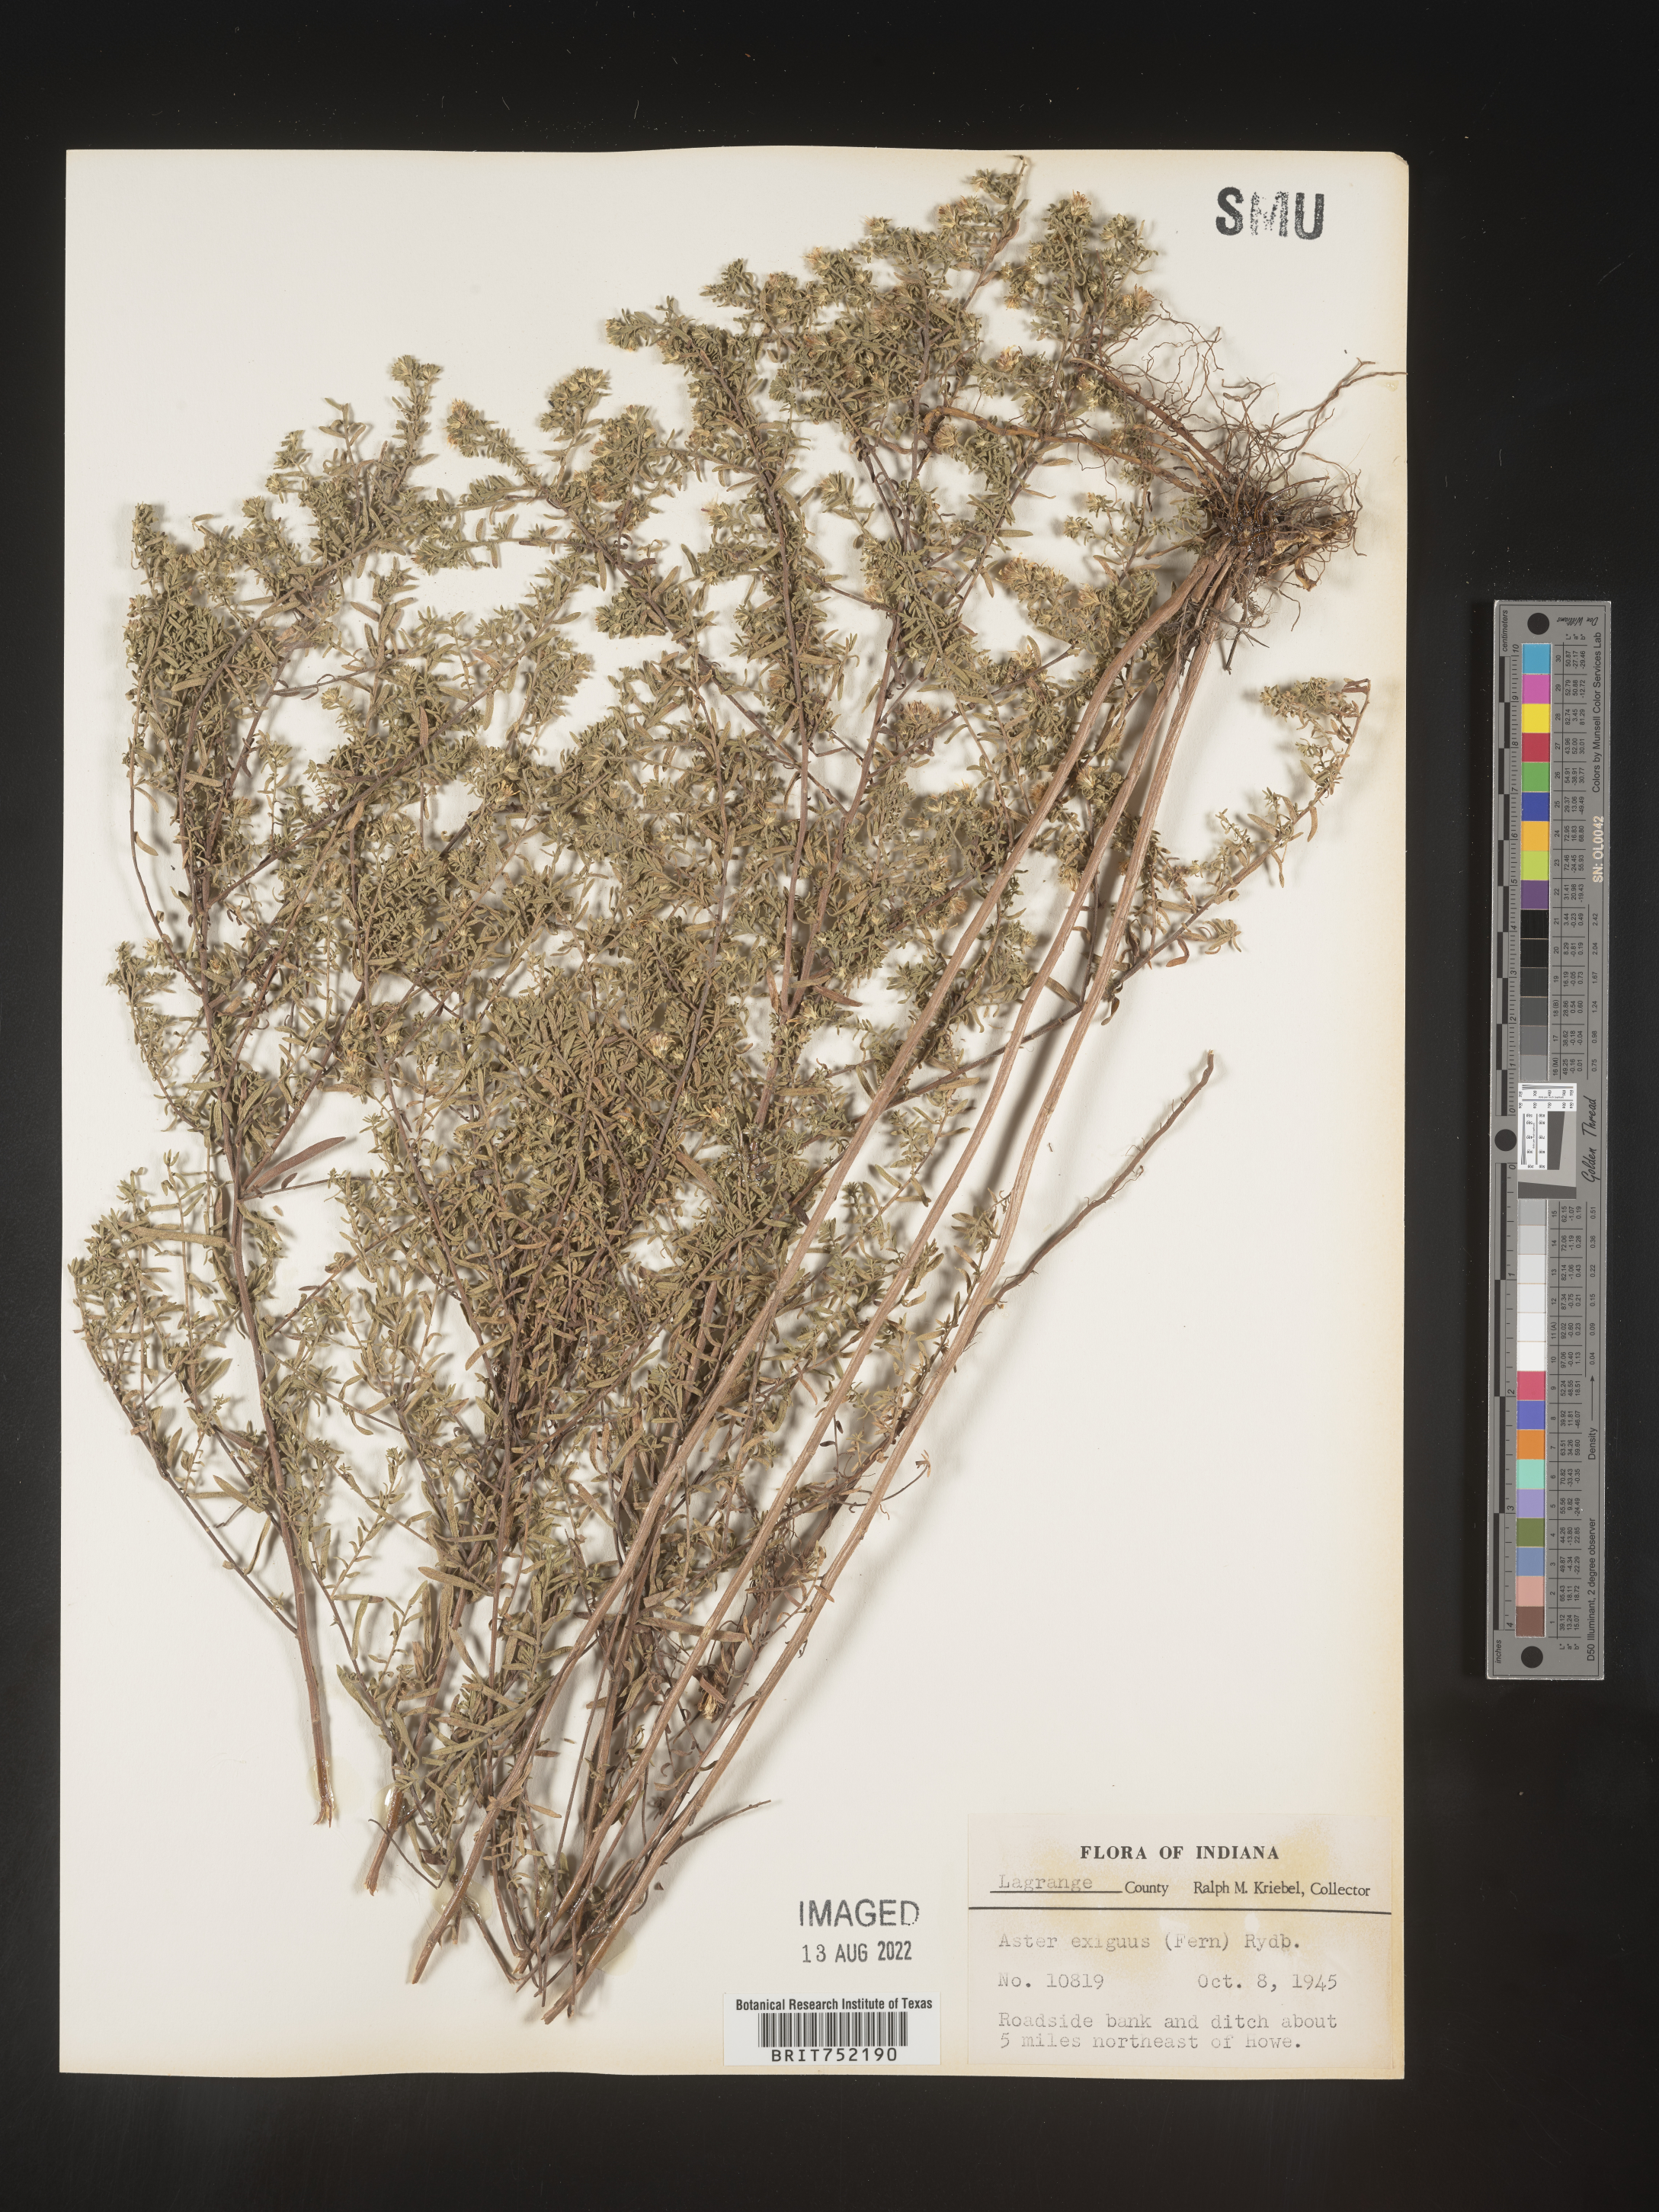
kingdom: Plantae
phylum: Tracheophyta
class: Magnoliopsida
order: Asterales
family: Asteraceae
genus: Symphyotrichum
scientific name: Symphyotrichum ericoides
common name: Heath aster
